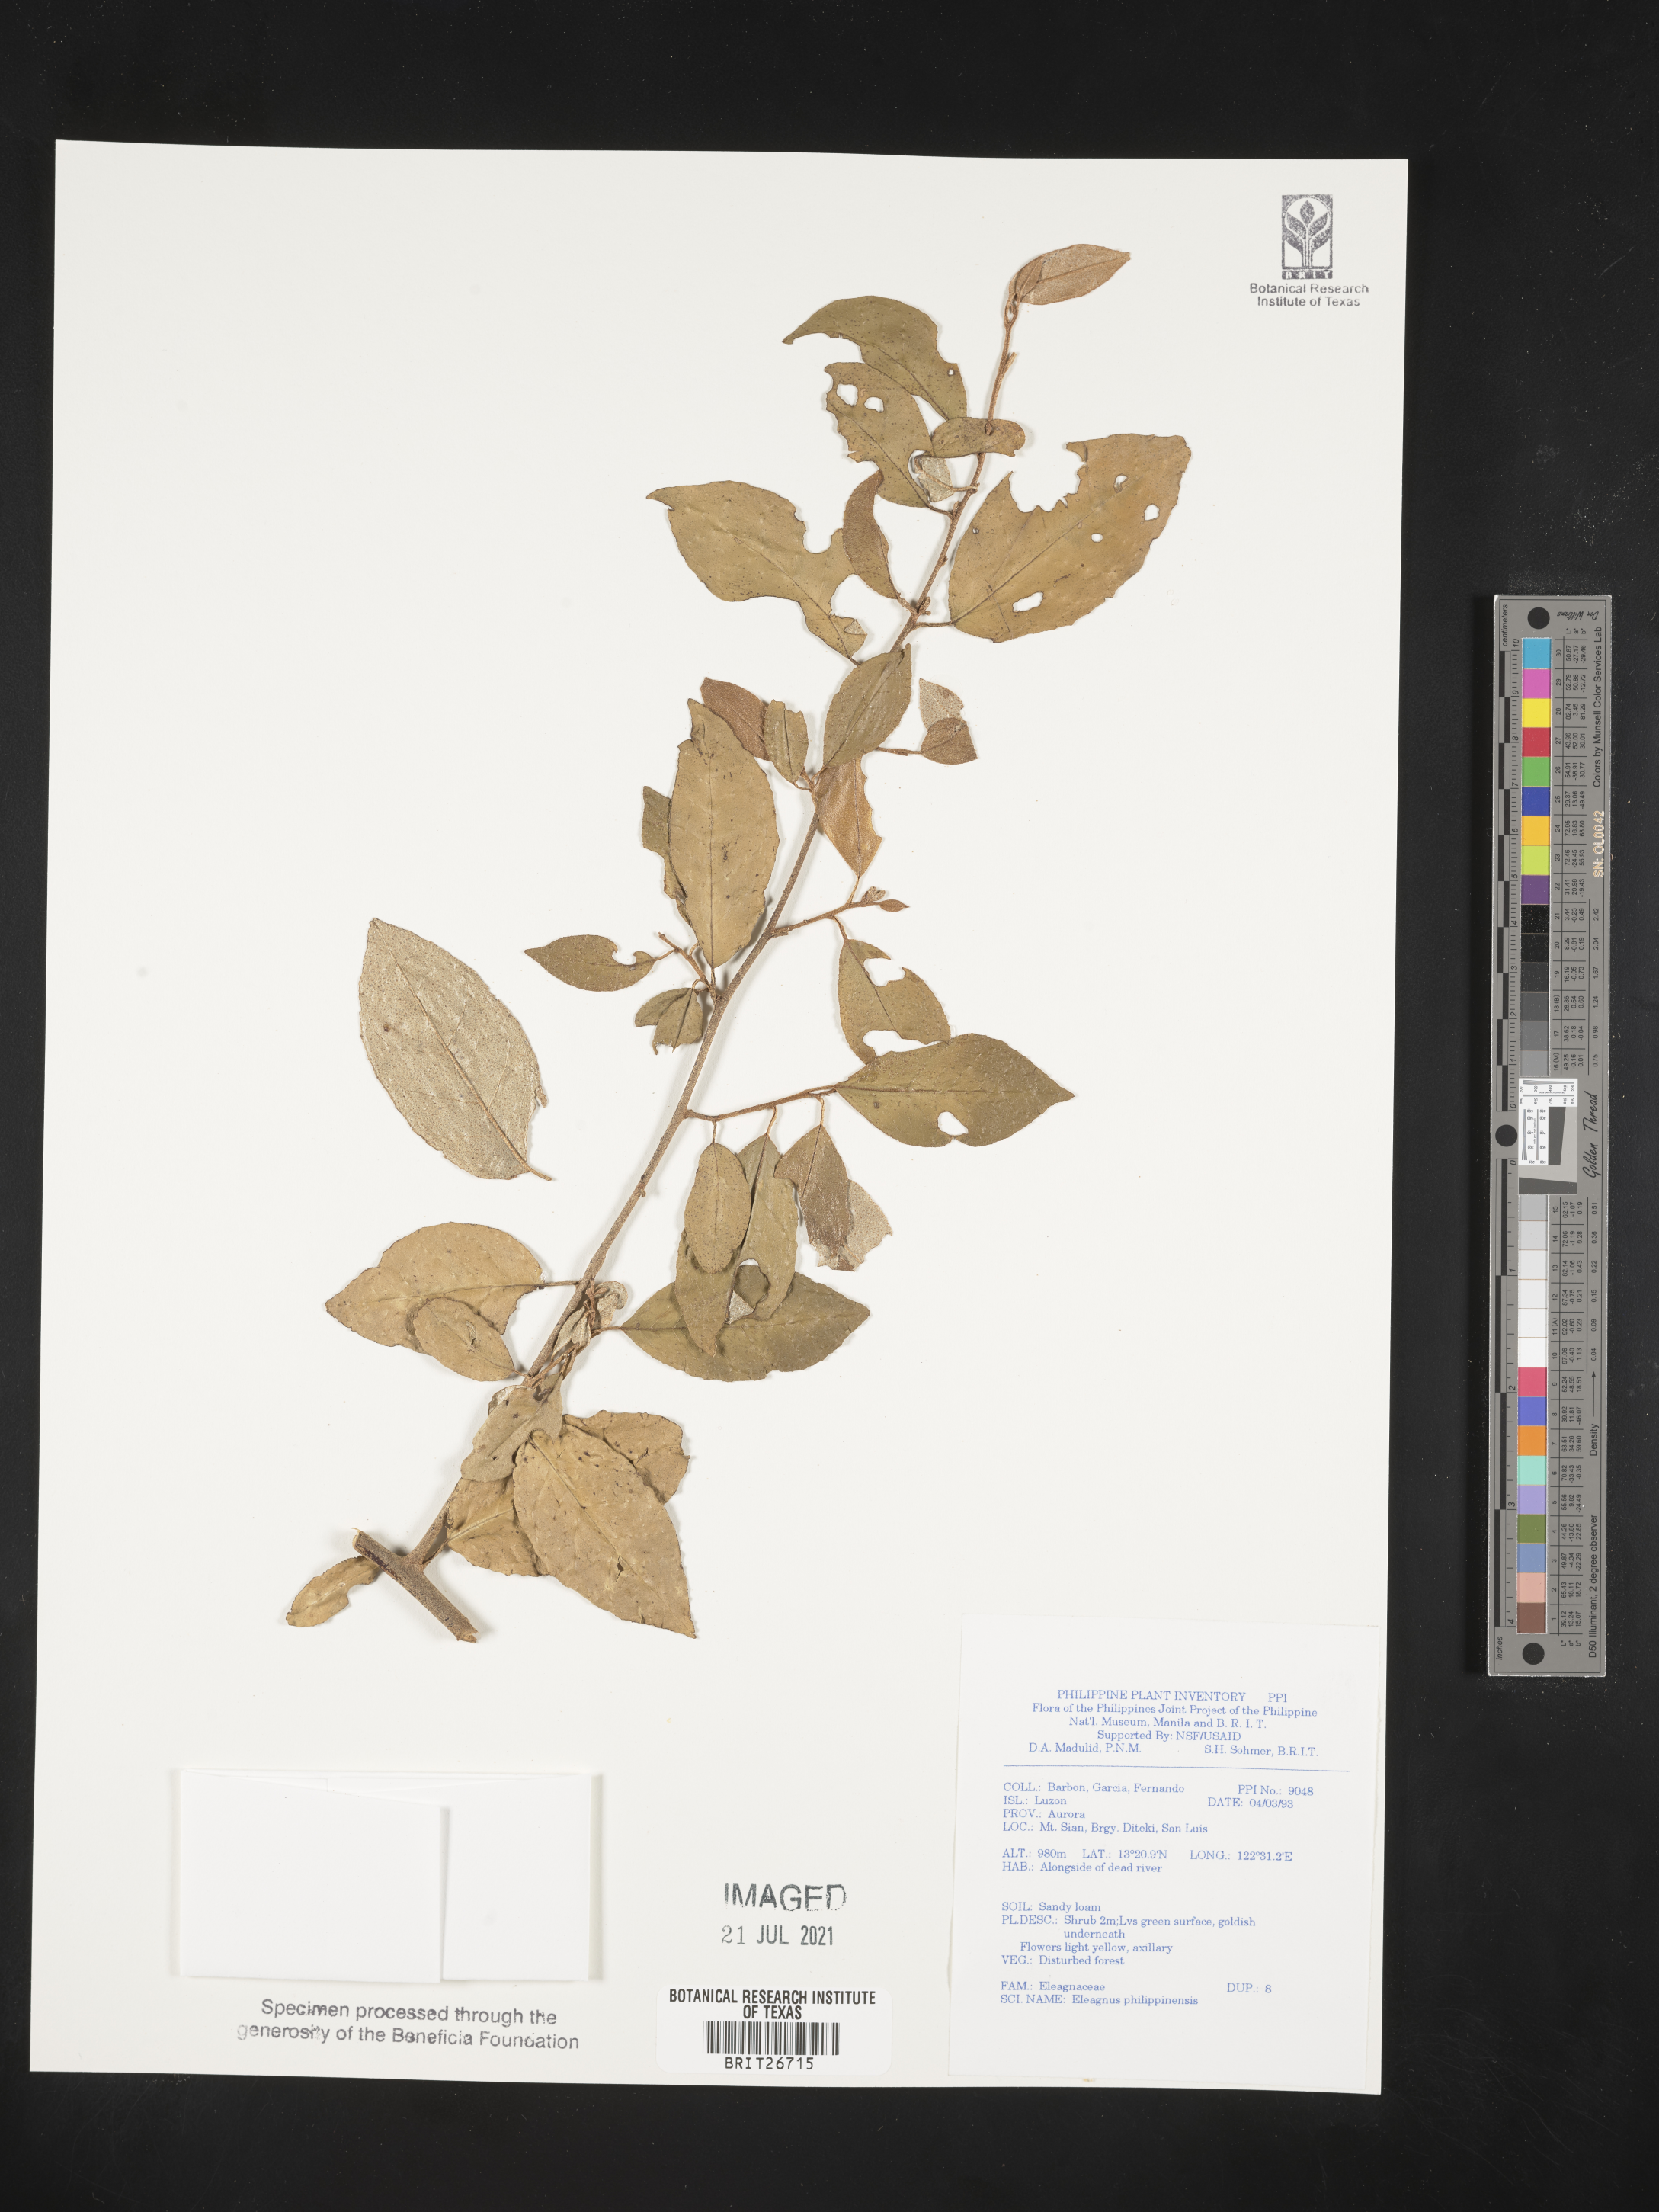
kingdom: Plantae
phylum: Tracheophyta
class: Magnoliopsida
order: Rosales
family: Elaeagnaceae
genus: Elaeagnus
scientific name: Elaeagnus triflora
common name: Millaa millaa-vine
